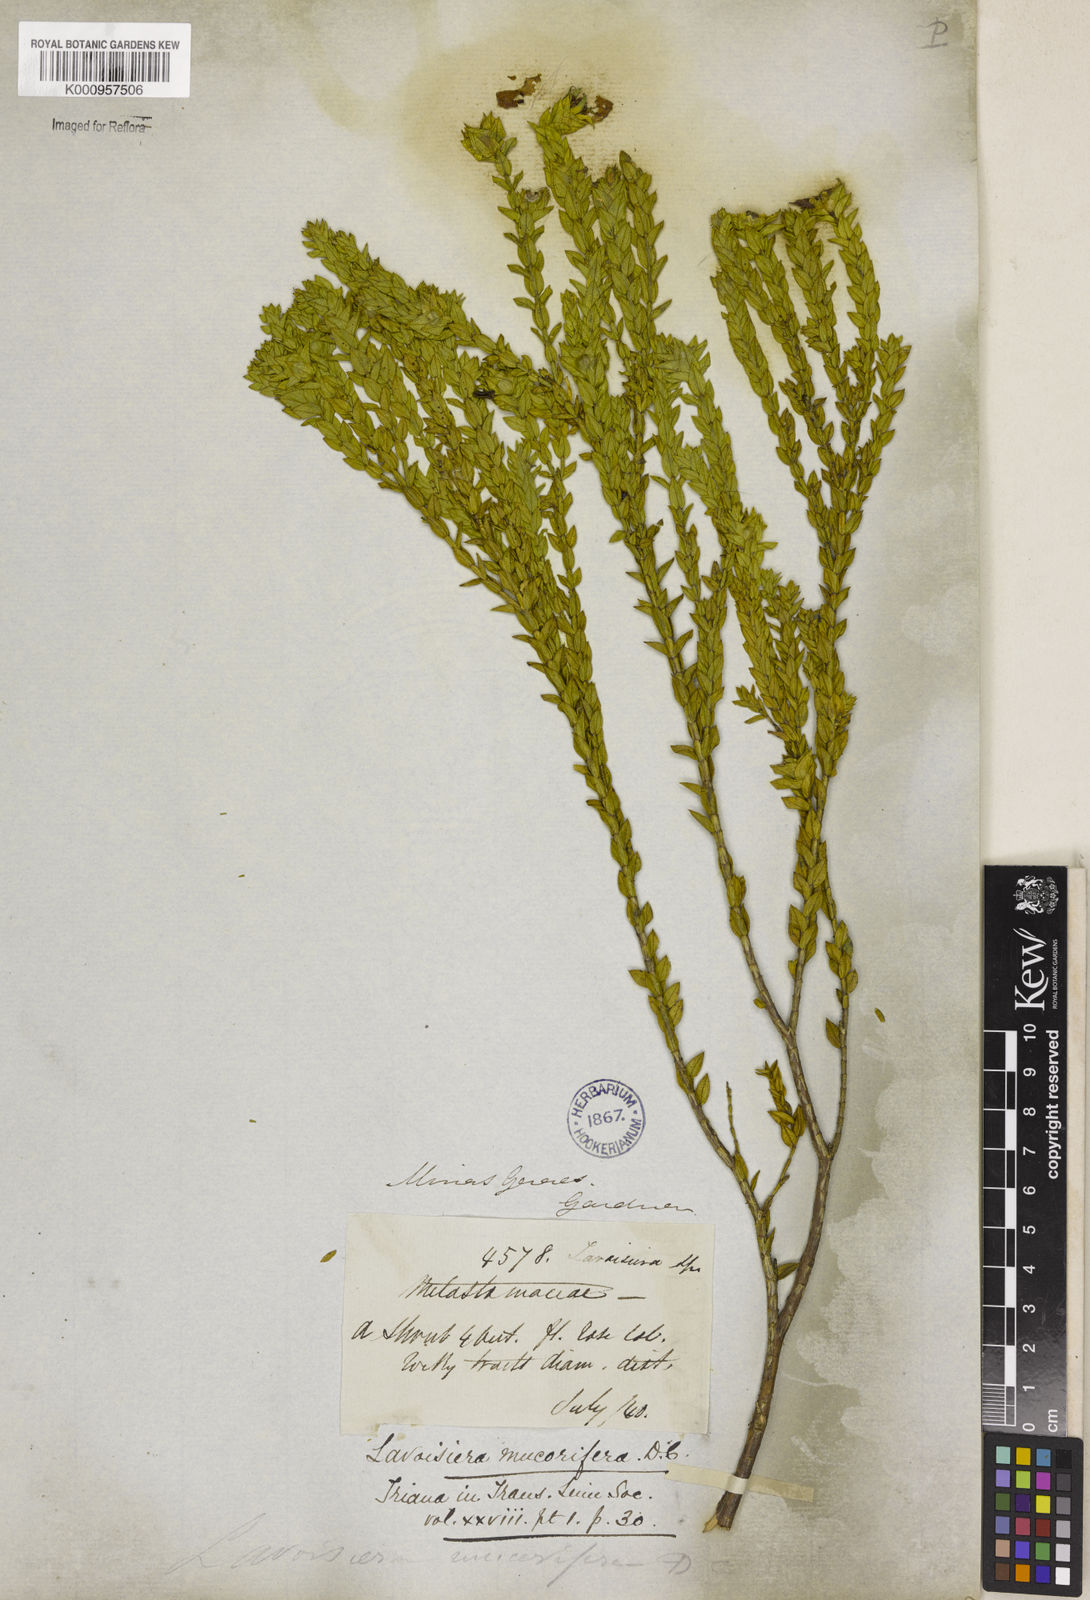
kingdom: Plantae
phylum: Tracheophyta
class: Magnoliopsida
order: Myrtales
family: Melastomataceae
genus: Microlicia
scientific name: Microlicia mucorifera
